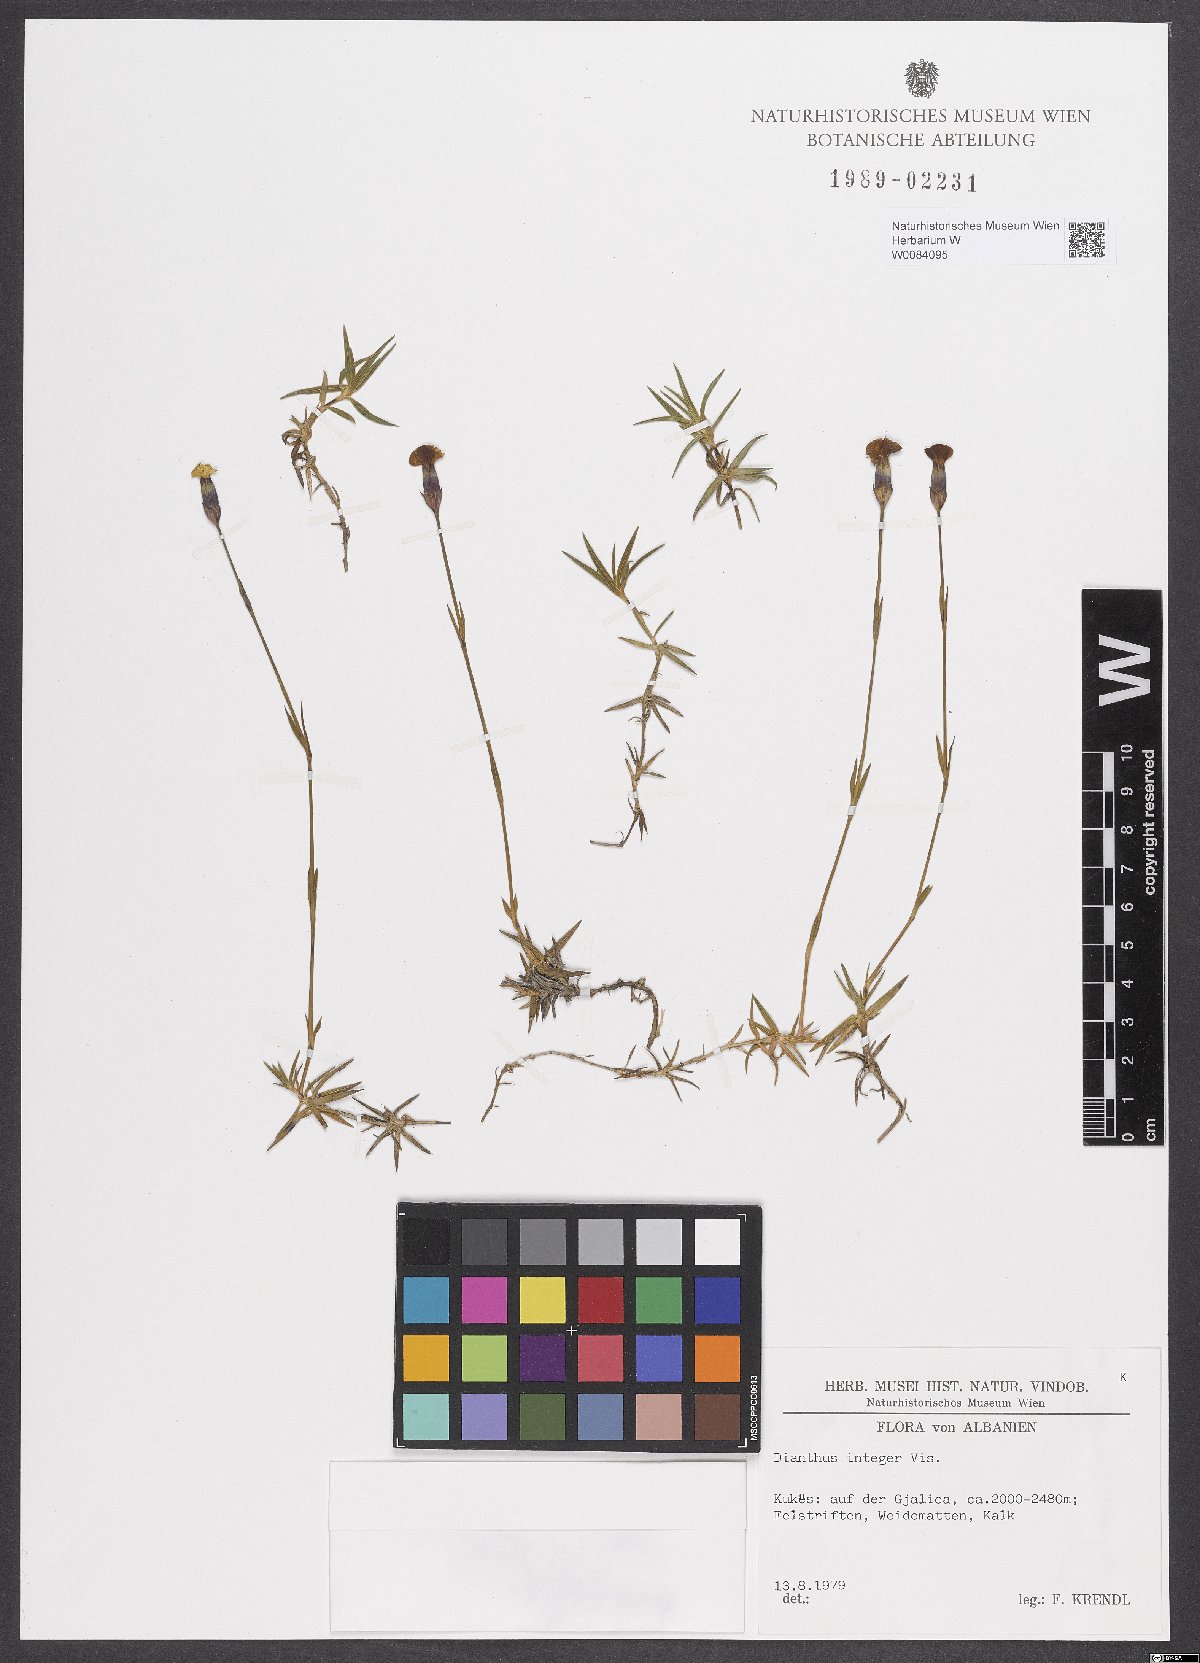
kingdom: Plantae
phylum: Tracheophyta
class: Magnoliopsida
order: Caryophyllales
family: Caryophyllaceae
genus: Dianthus
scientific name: Dianthus integer
